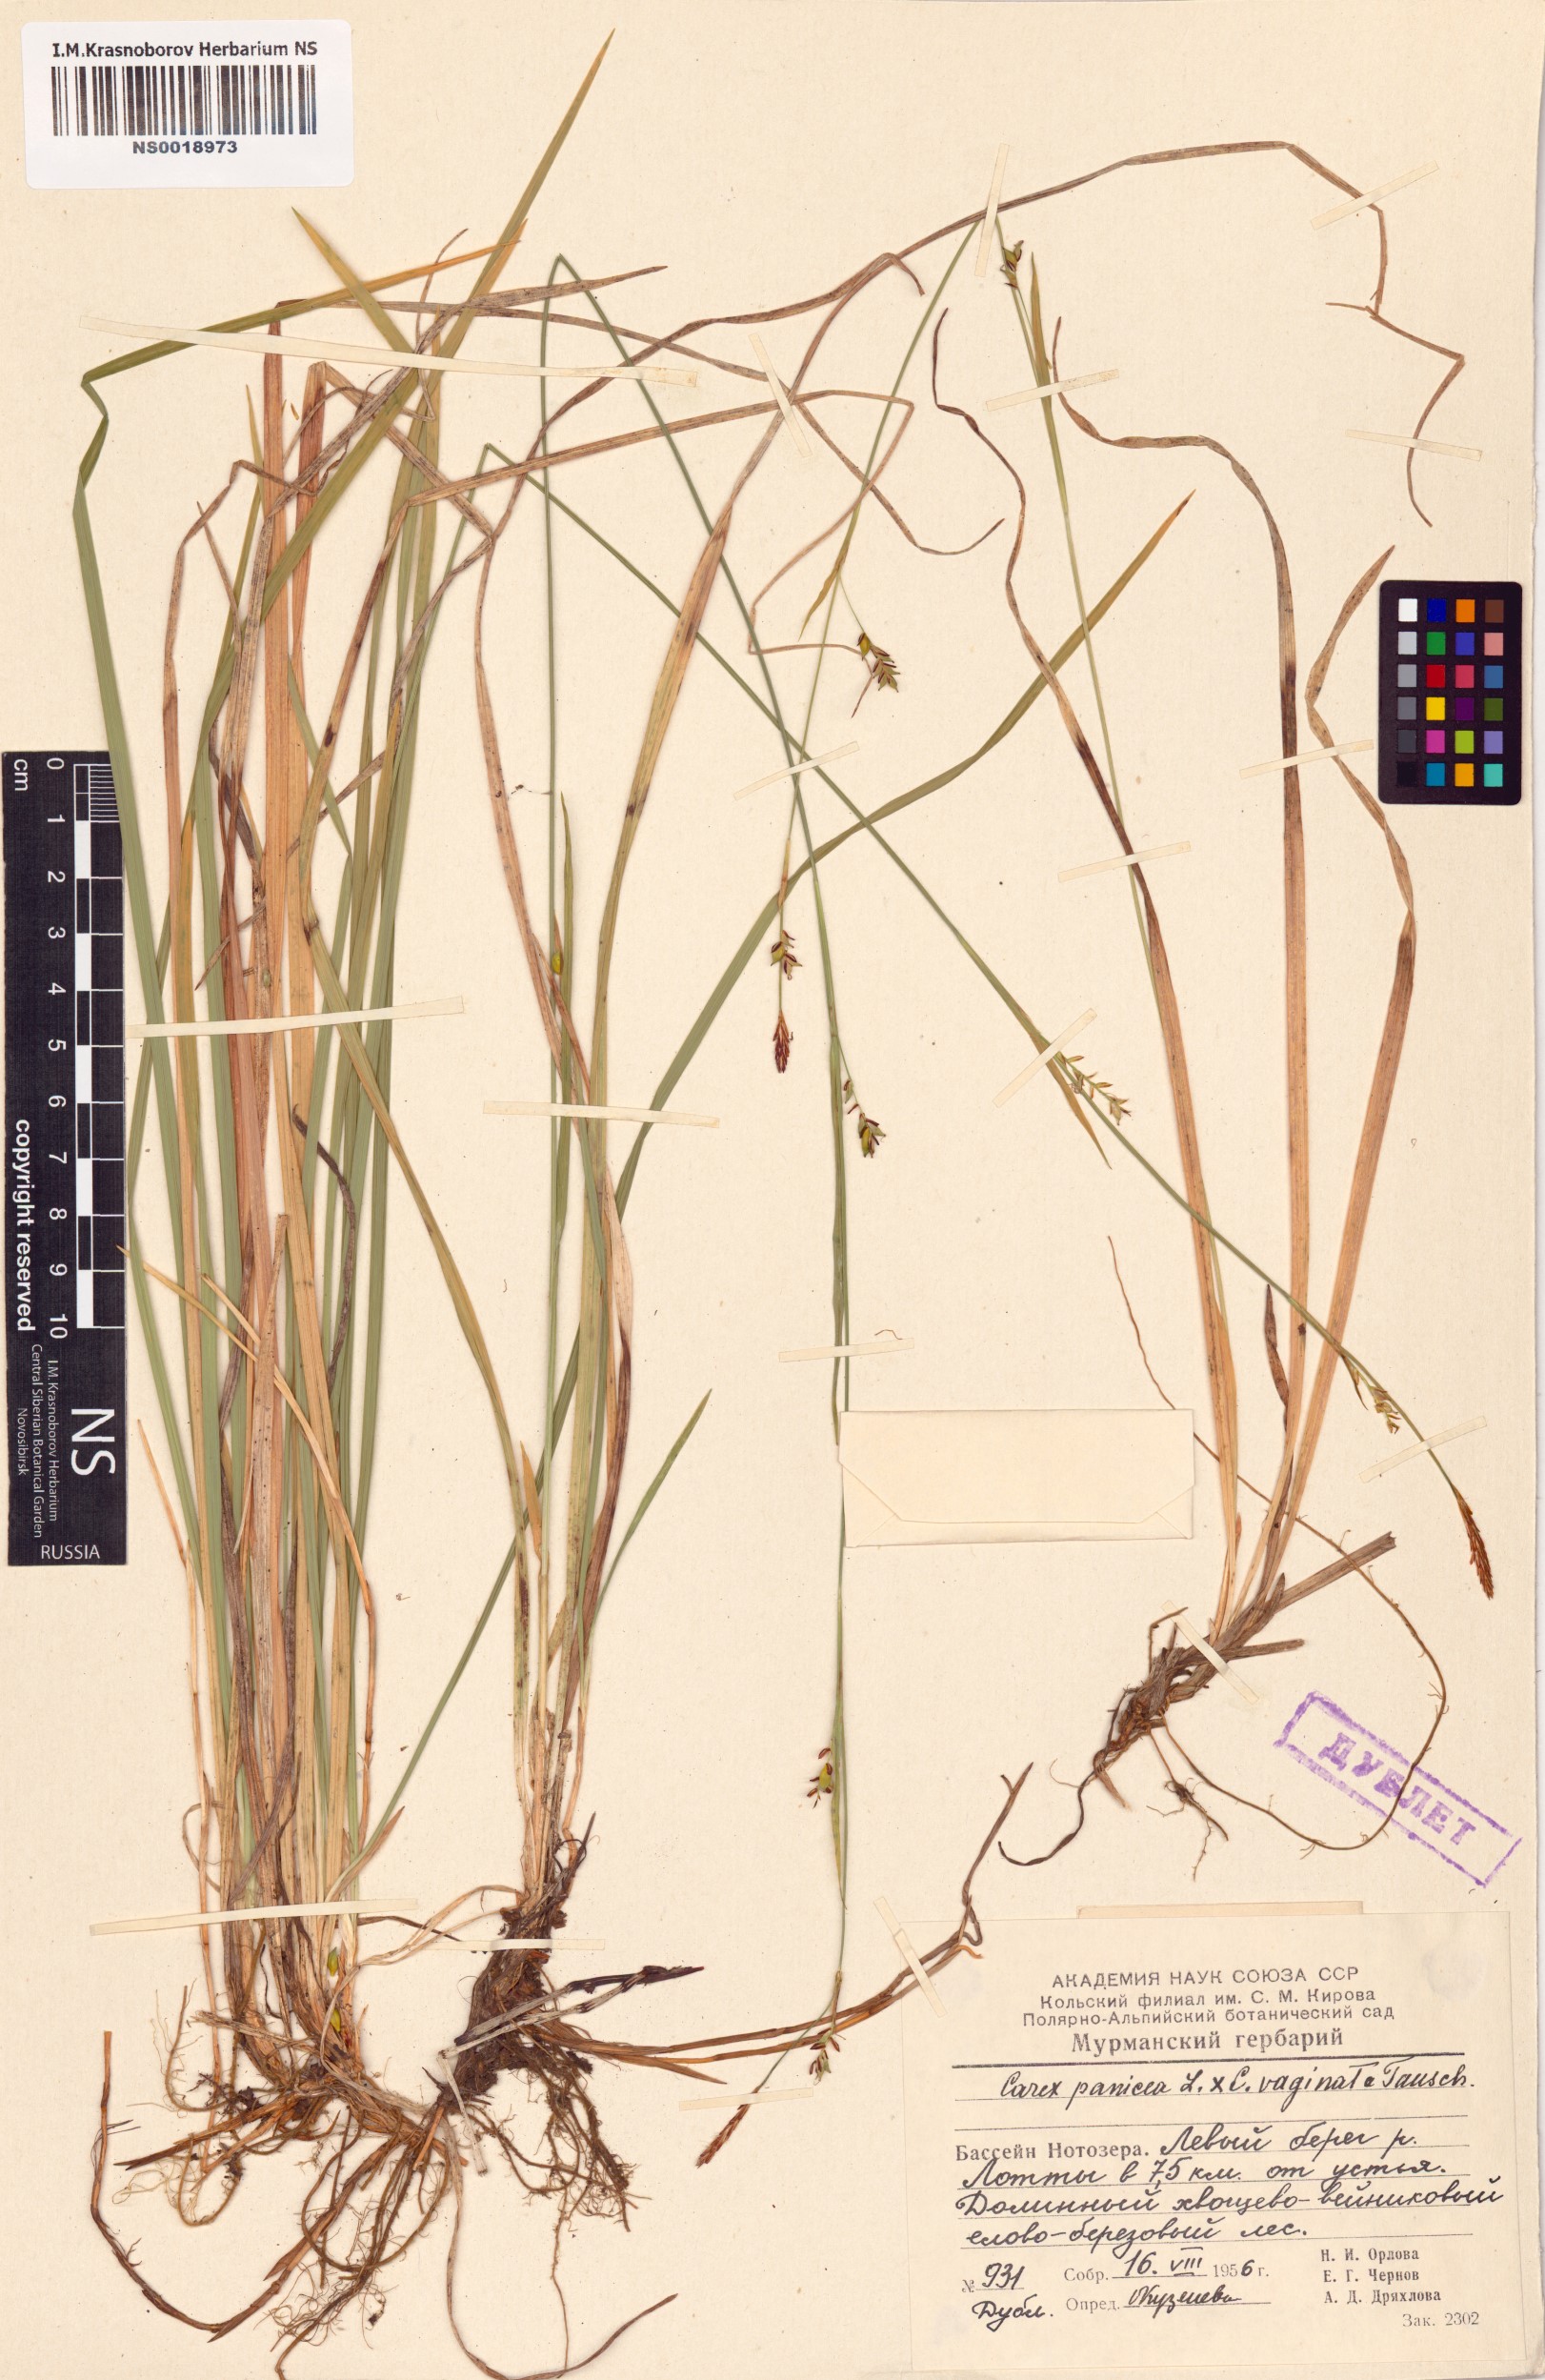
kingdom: Plantae
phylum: Tracheophyta
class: Liliopsida
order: Poales
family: Cyperaceae
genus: Carex
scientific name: Carex panicea
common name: Carnation sedge
